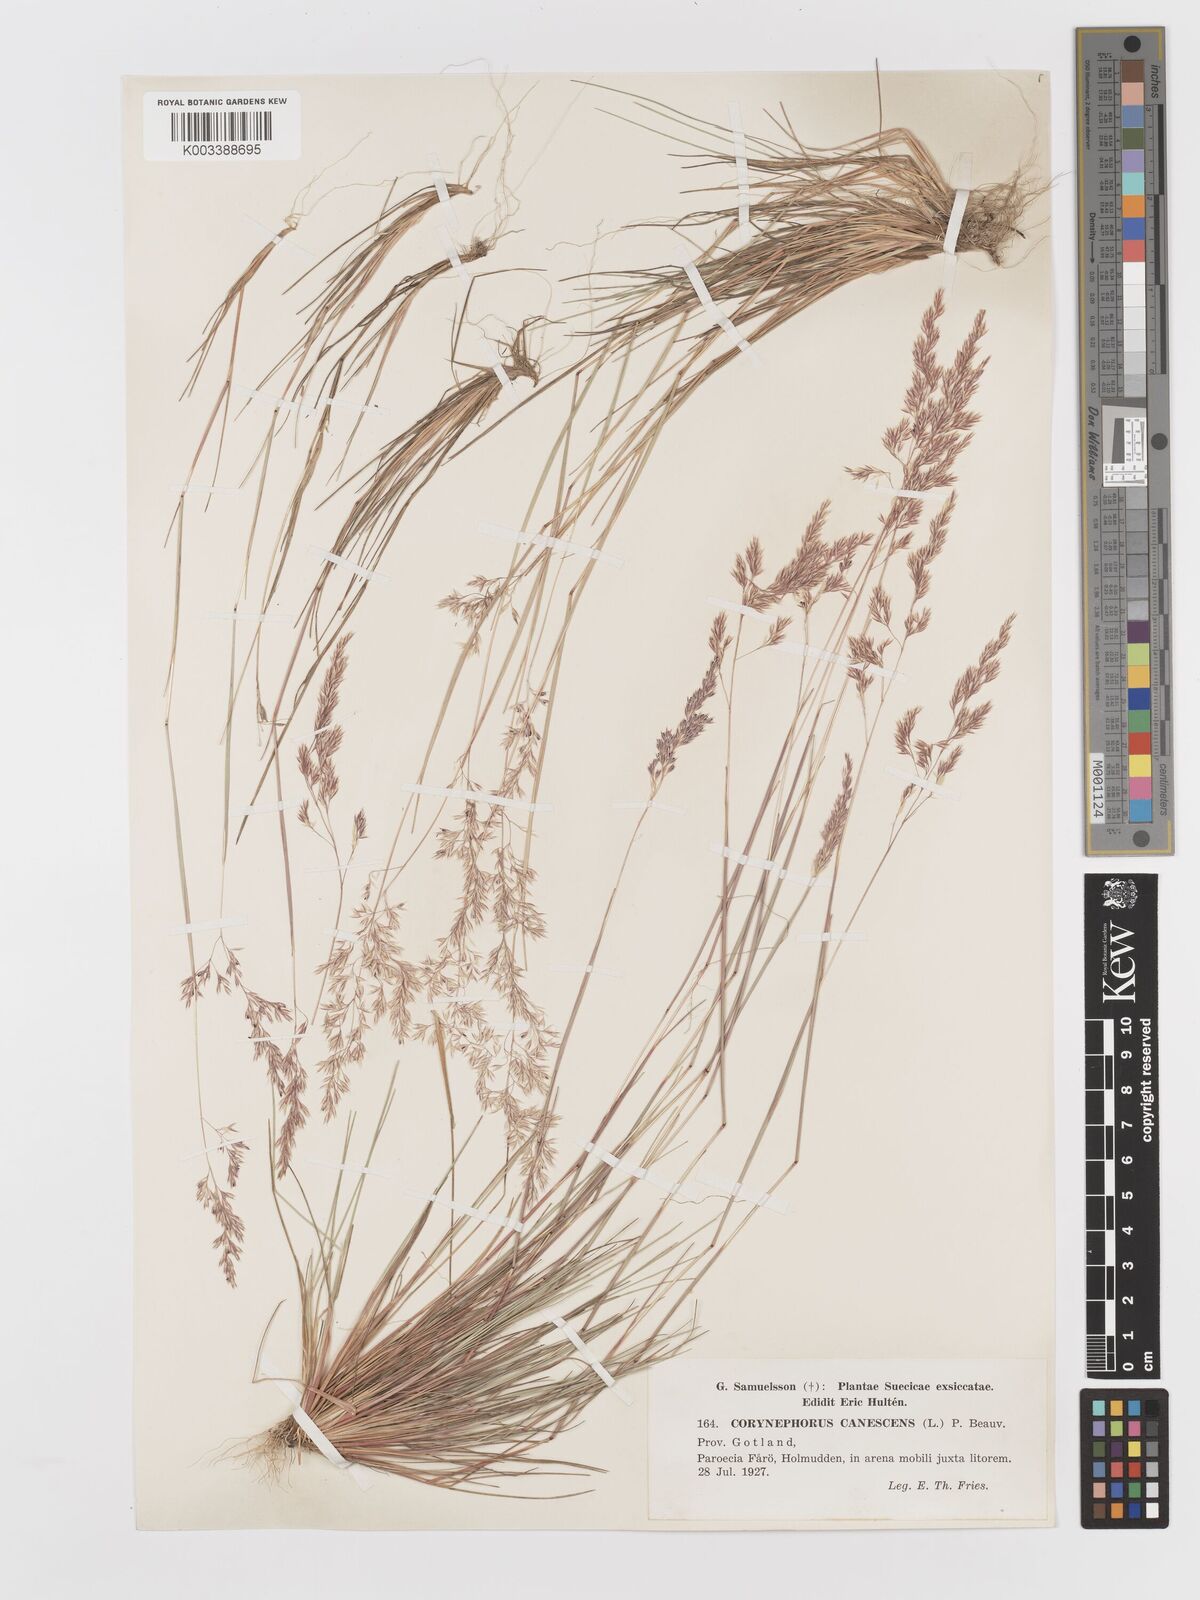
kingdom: Plantae
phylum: Tracheophyta
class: Liliopsida
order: Poales
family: Poaceae
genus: Corynephorus
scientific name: Corynephorus canescens
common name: Grey hair-grass
